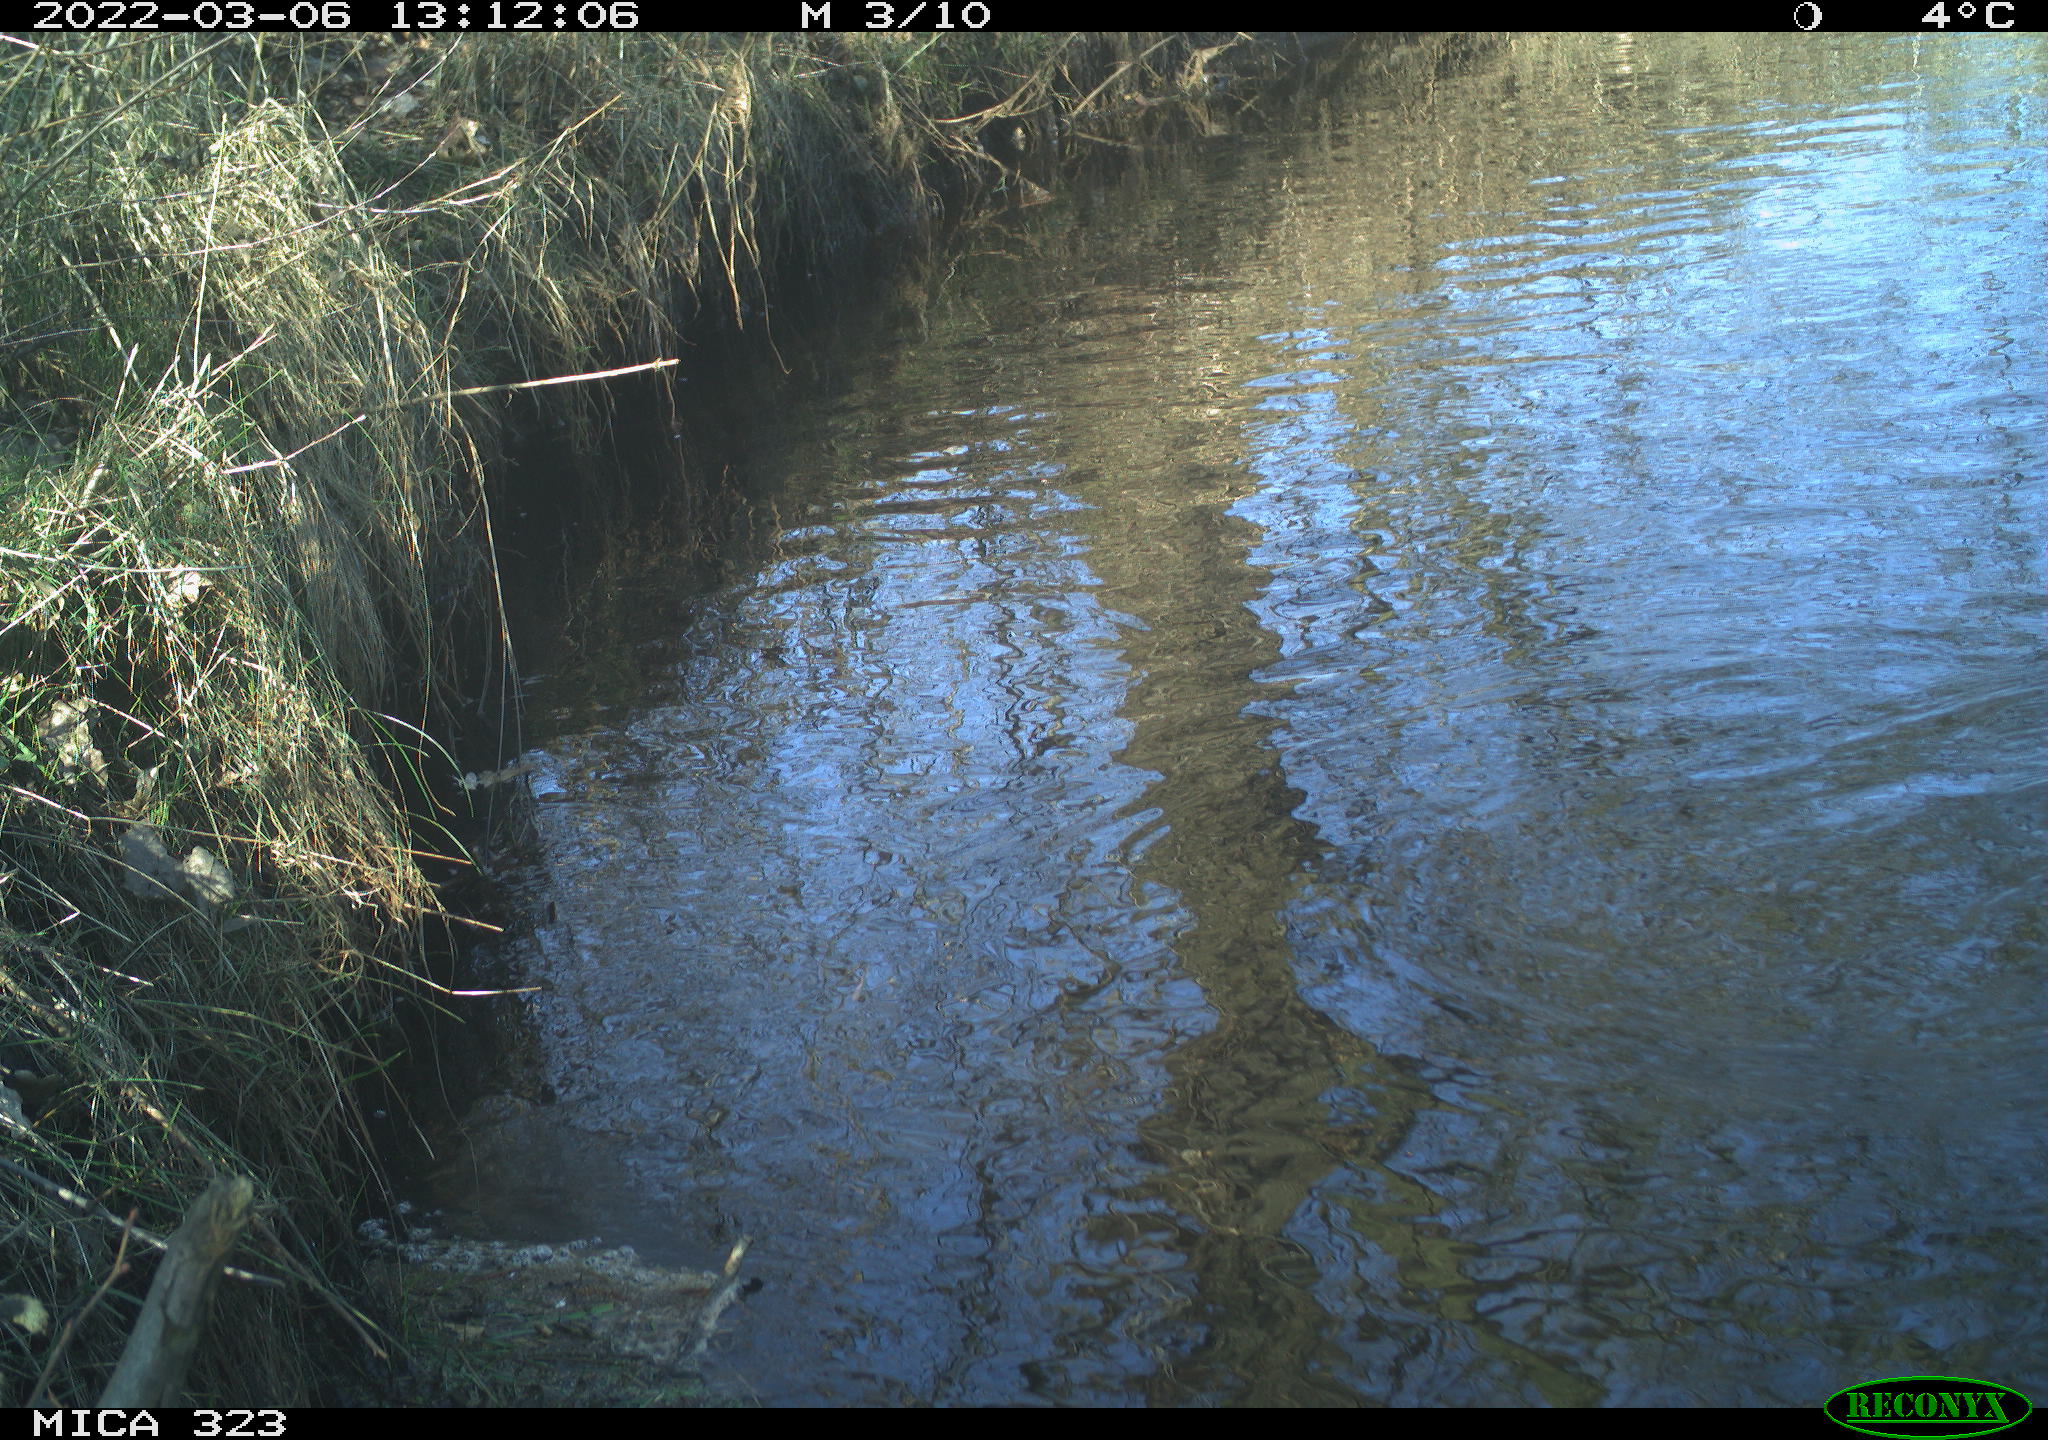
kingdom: Animalia
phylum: Chordata
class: Aves
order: Anseriformes
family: Anatidae
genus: Anas
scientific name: Anas platyrhynchos
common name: Mallard
